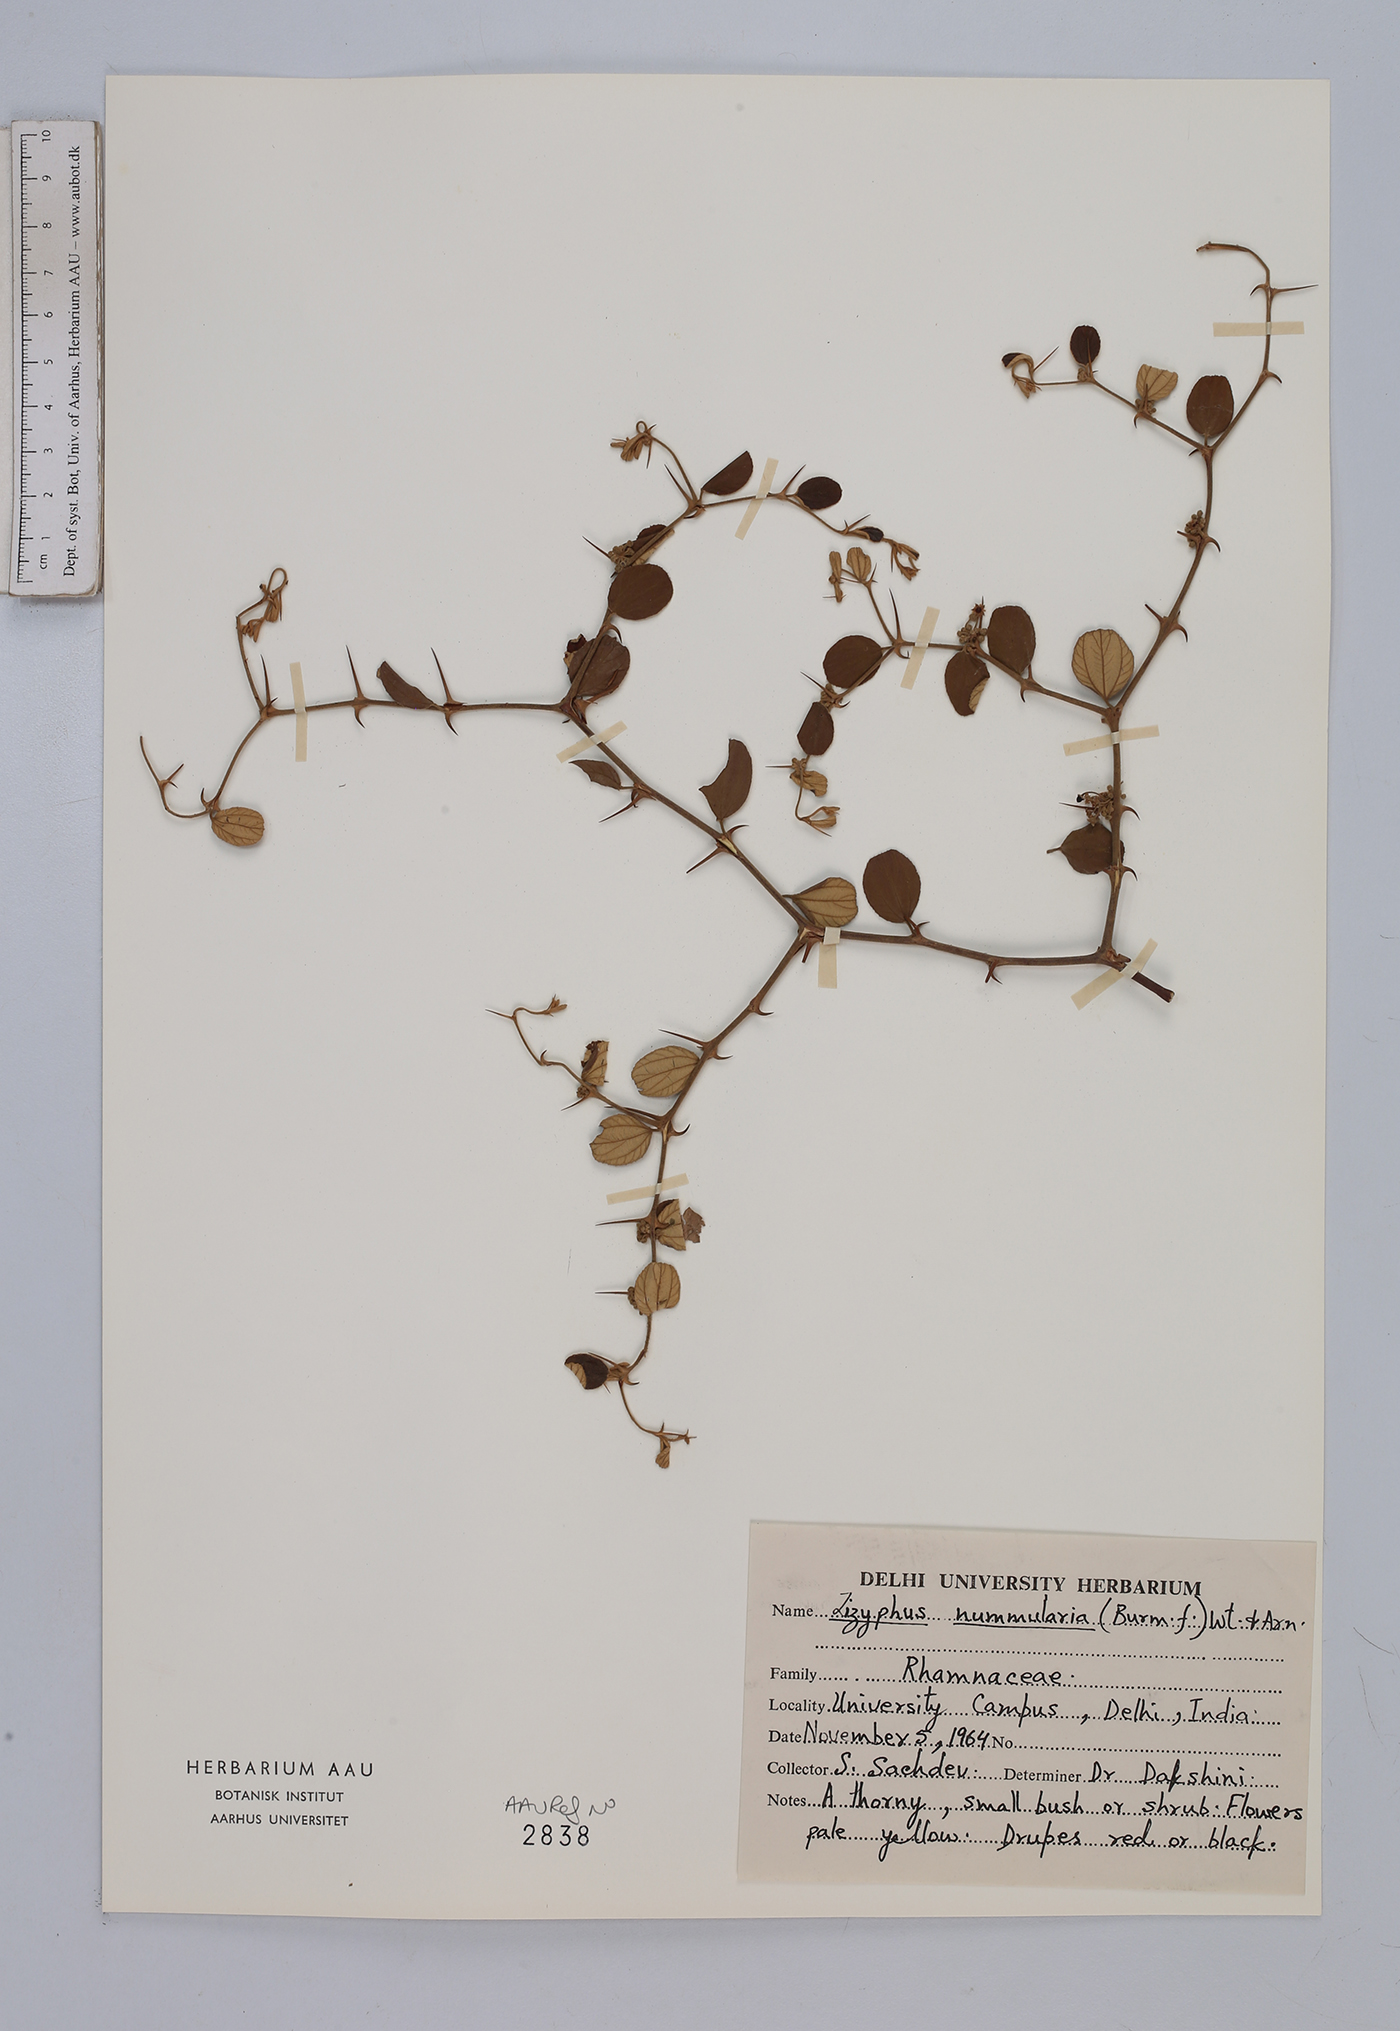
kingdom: Plantae
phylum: Tracheophyta
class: Magnoliopsida
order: Rosales
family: Rhamnaceae
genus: Ziziphus
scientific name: Ziziphus nummularia
